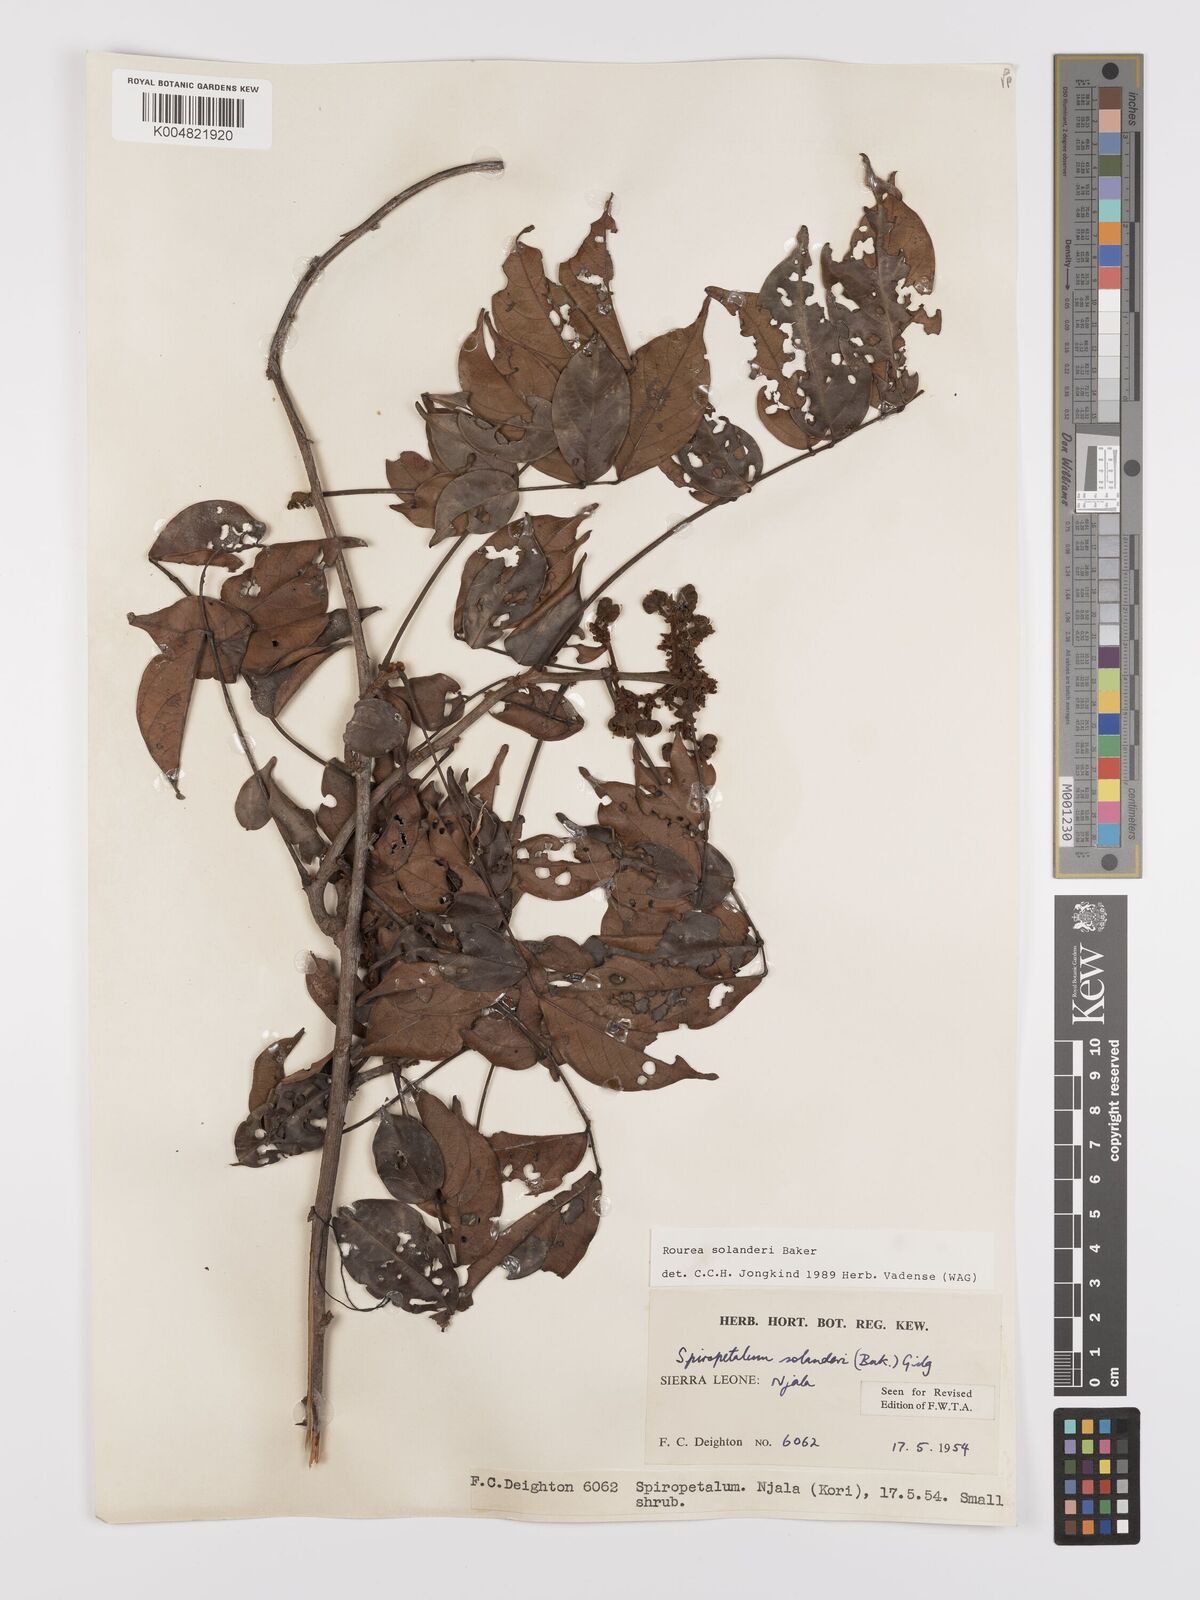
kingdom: Plantae
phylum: Tracheophyta
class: Magnoliopsida
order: Oxalidales
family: Connaraceae
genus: Rourea
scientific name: Rourea solanderi
